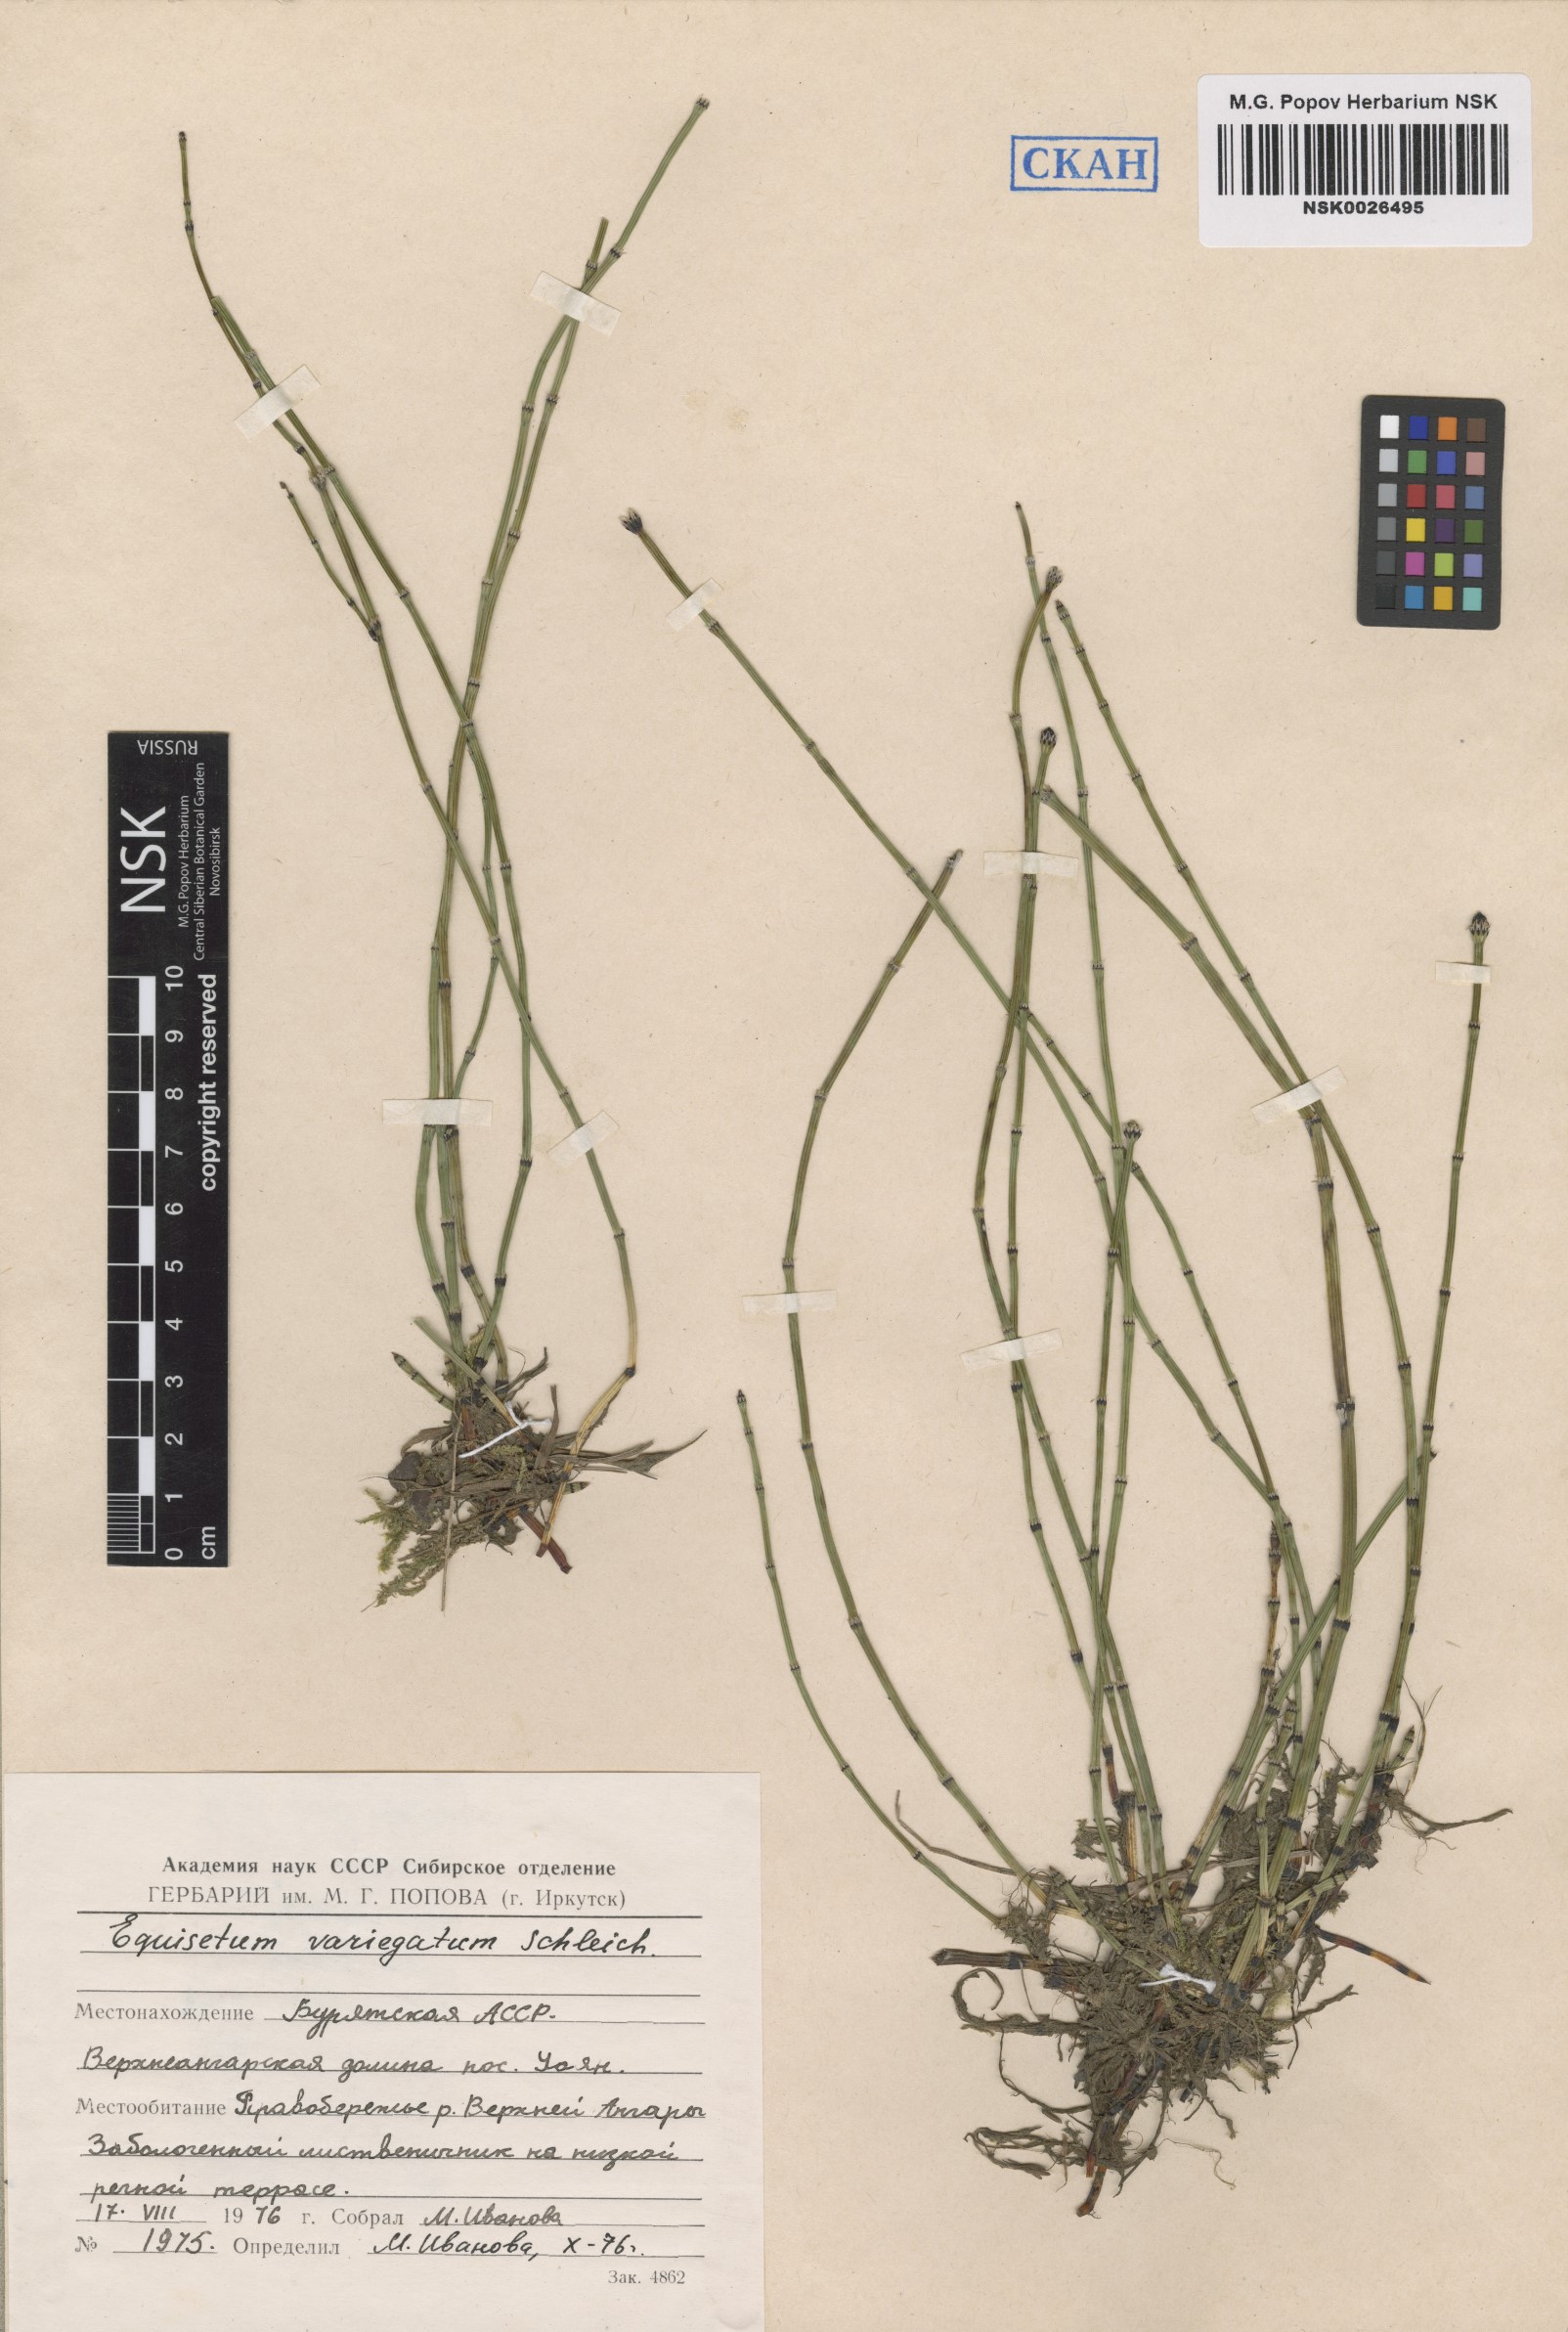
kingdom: Plantae
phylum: Tracheophyta
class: Polypodiopsida
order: Equisetales
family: Equisetaceae
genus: Equisetum
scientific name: Equisetum variegatum
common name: Variegated horsetail
